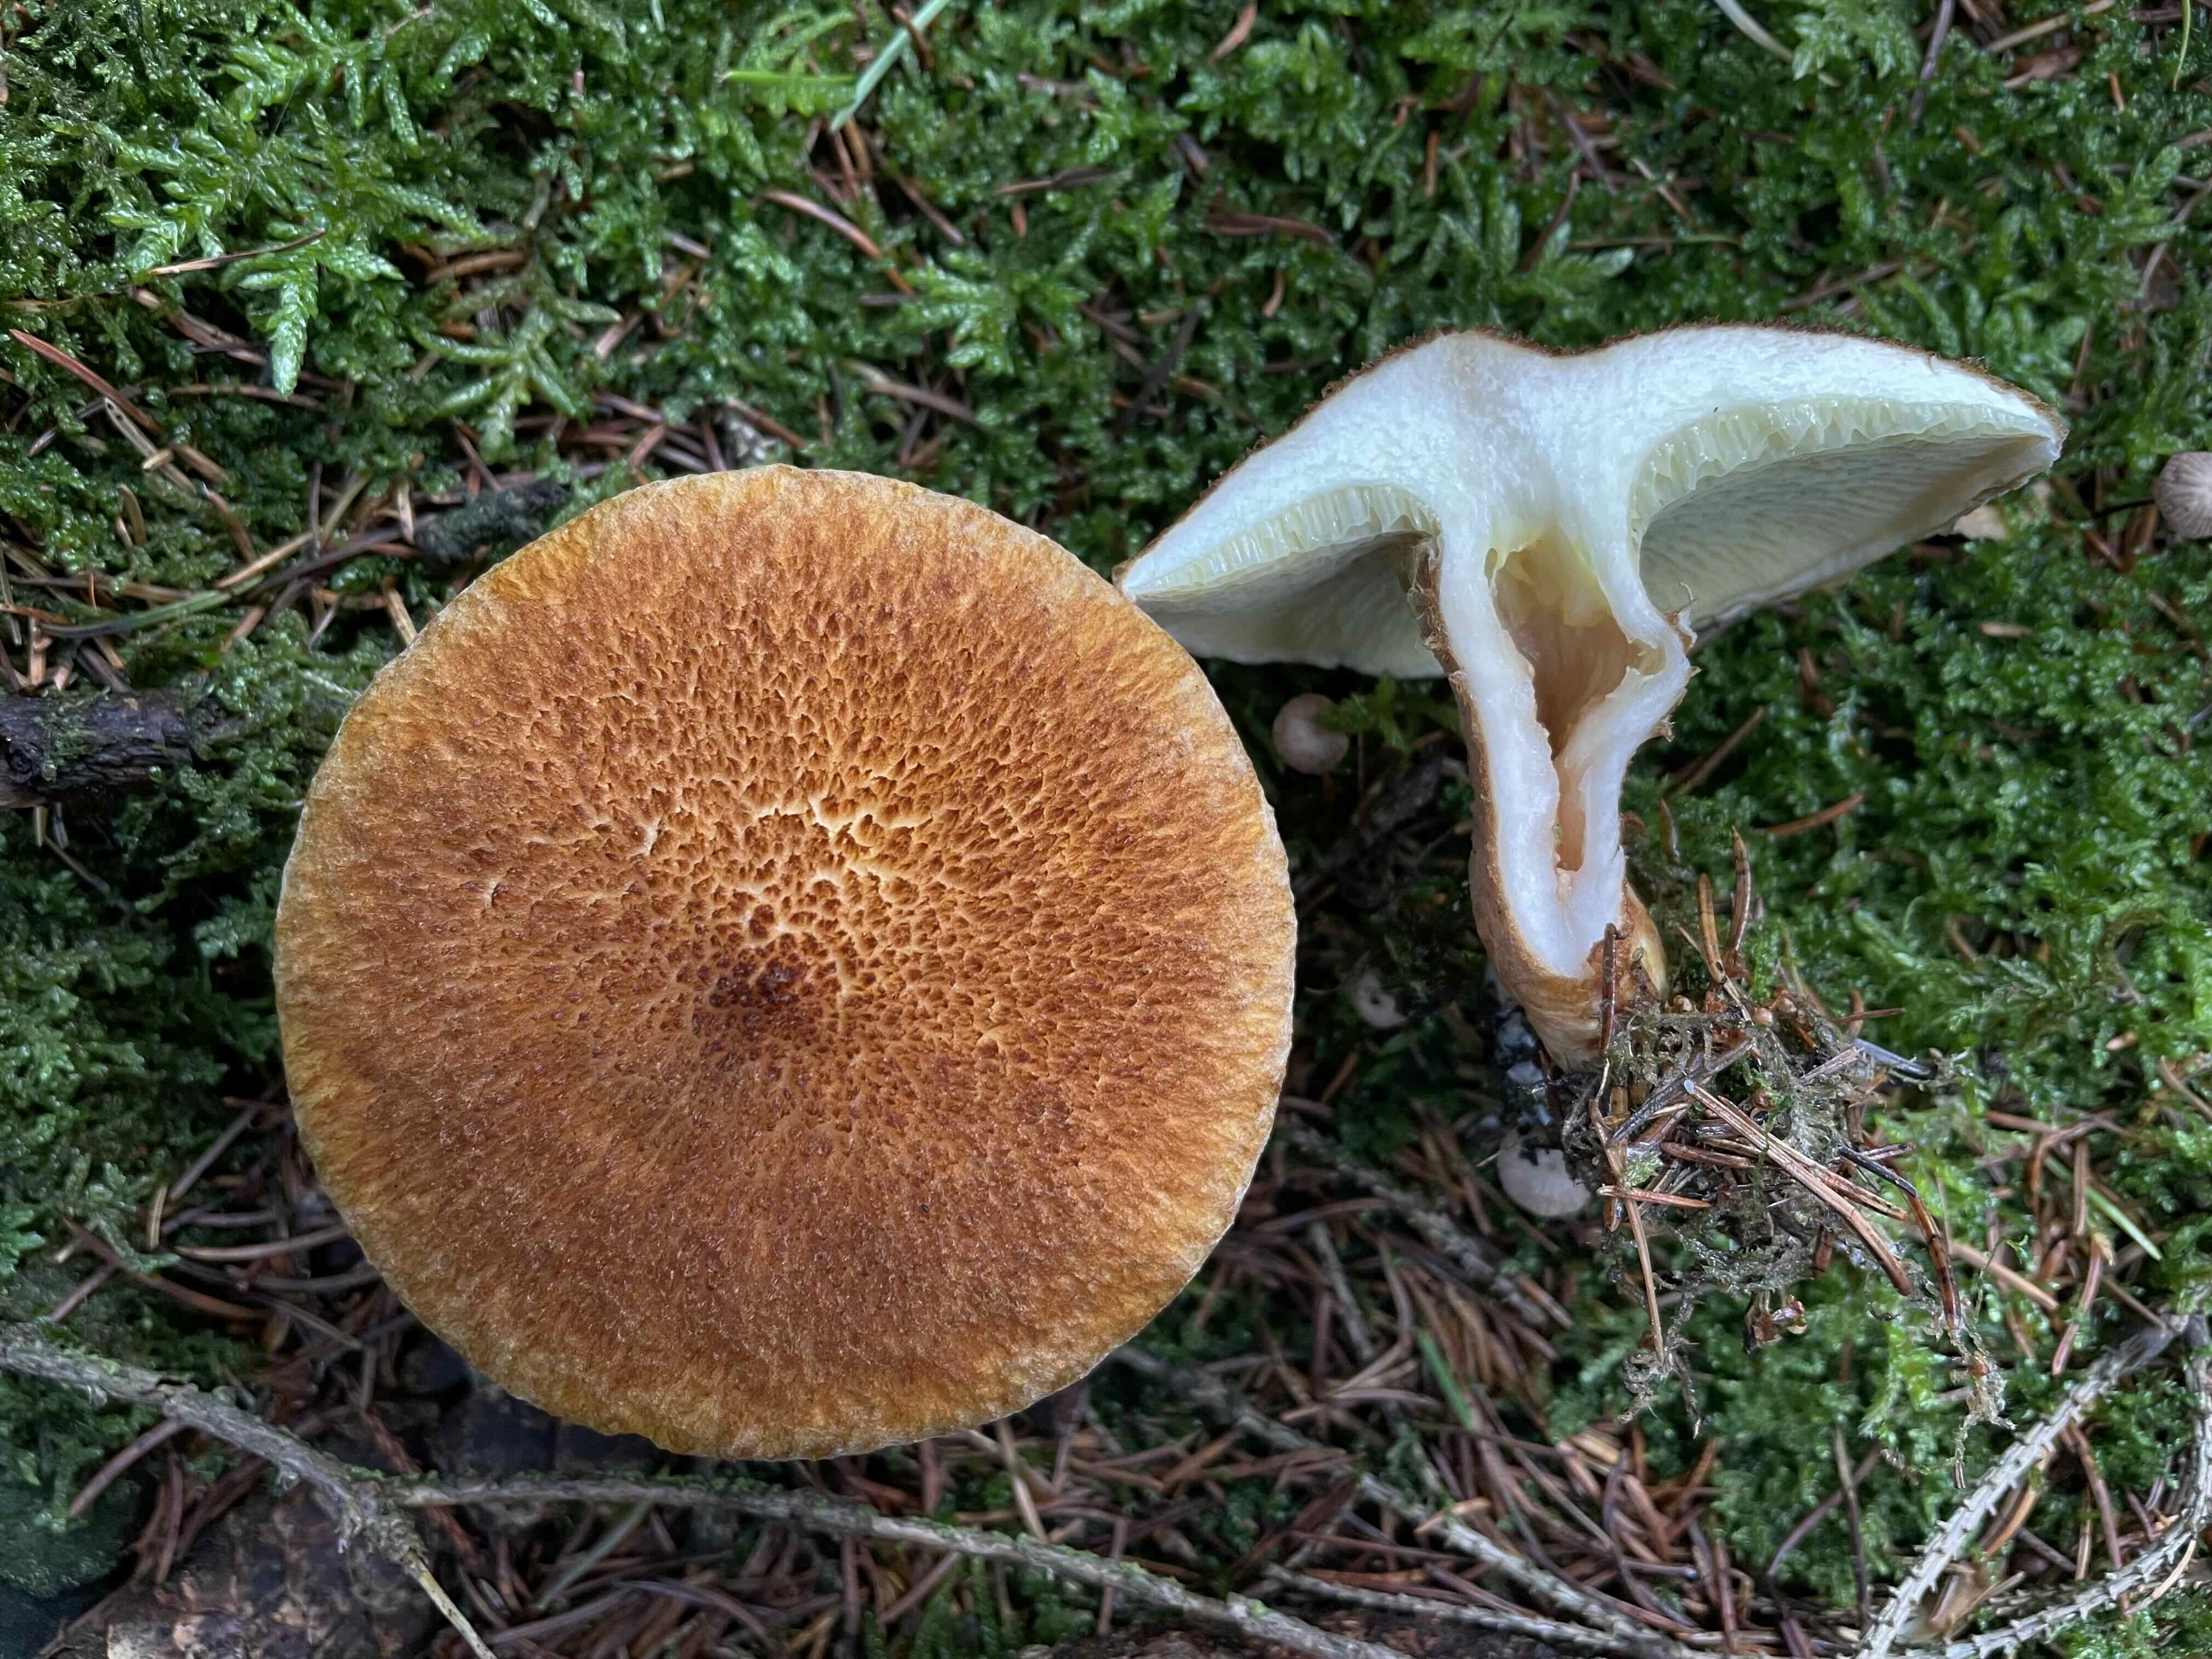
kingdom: Fungi
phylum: Basidiomycota
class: Agaricomycetes
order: Boletales
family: Suillaceae
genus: Suillus
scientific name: Suillus cavipes
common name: hulstokket slimrørhat
